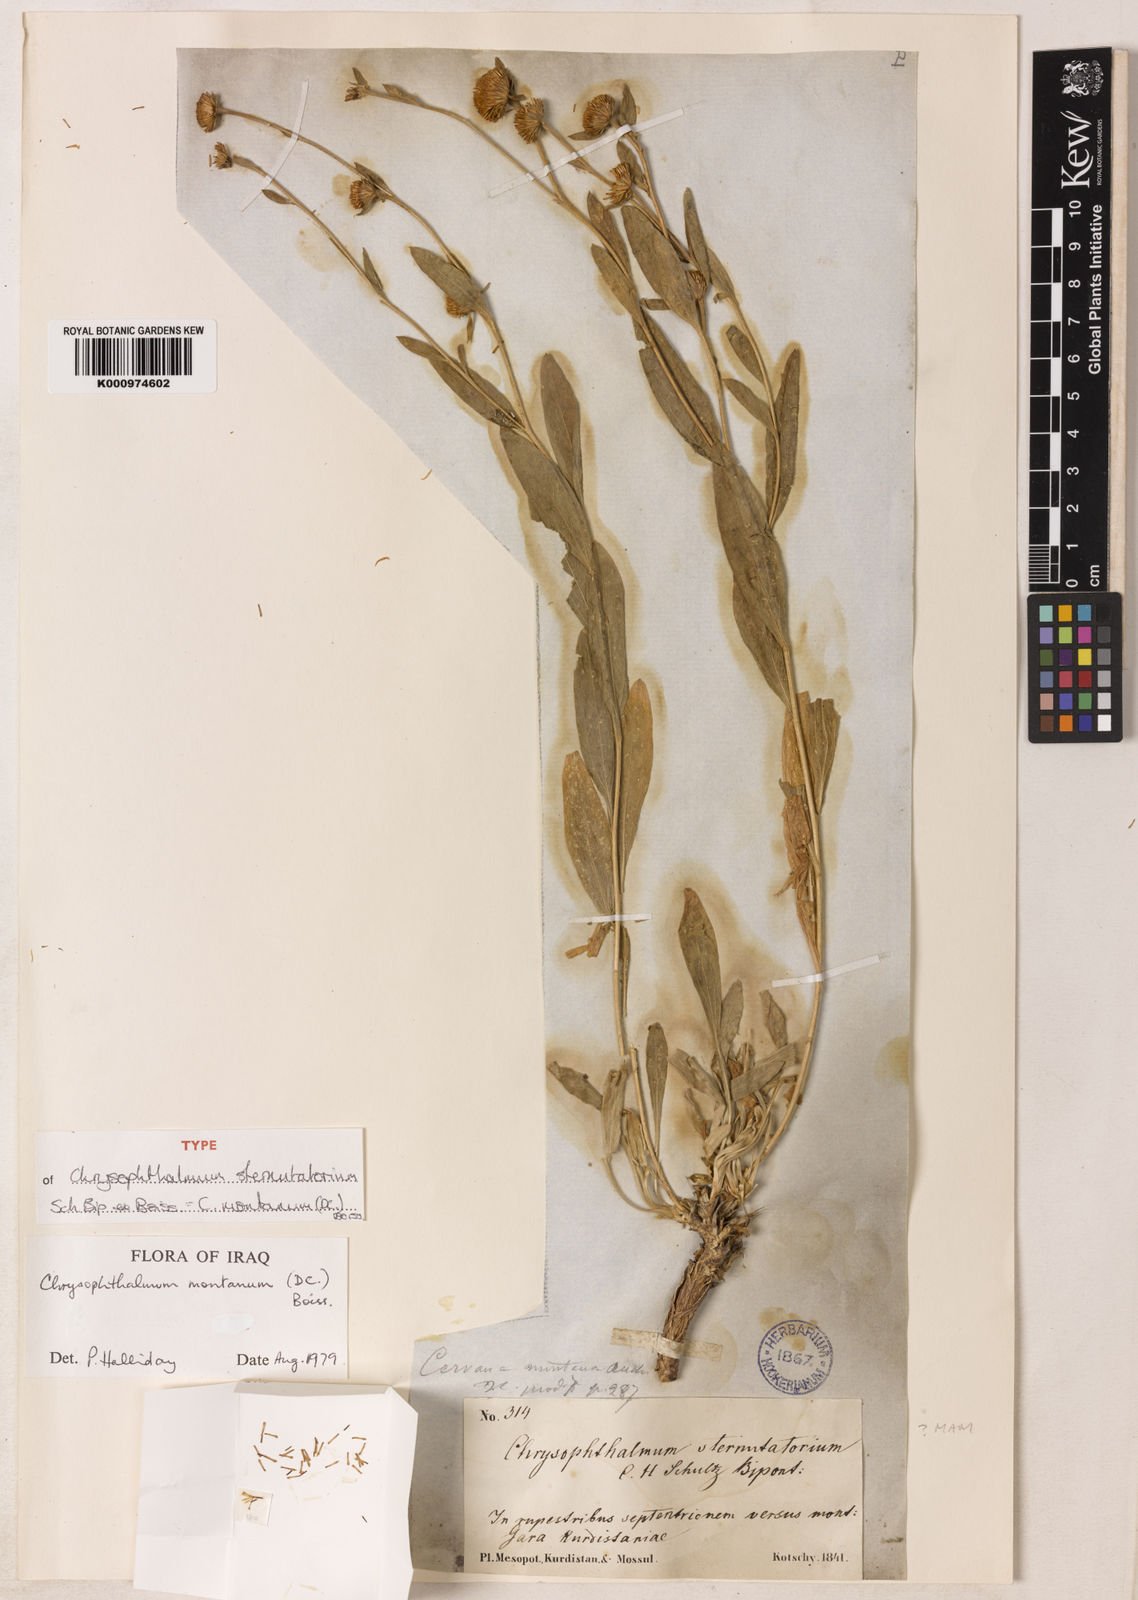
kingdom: Plantae
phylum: Tracheophyta
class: Magnoliopsida
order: Asterales
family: Asteraceae
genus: Chrysophtalmum
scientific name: Chrysophtalmum montanum
